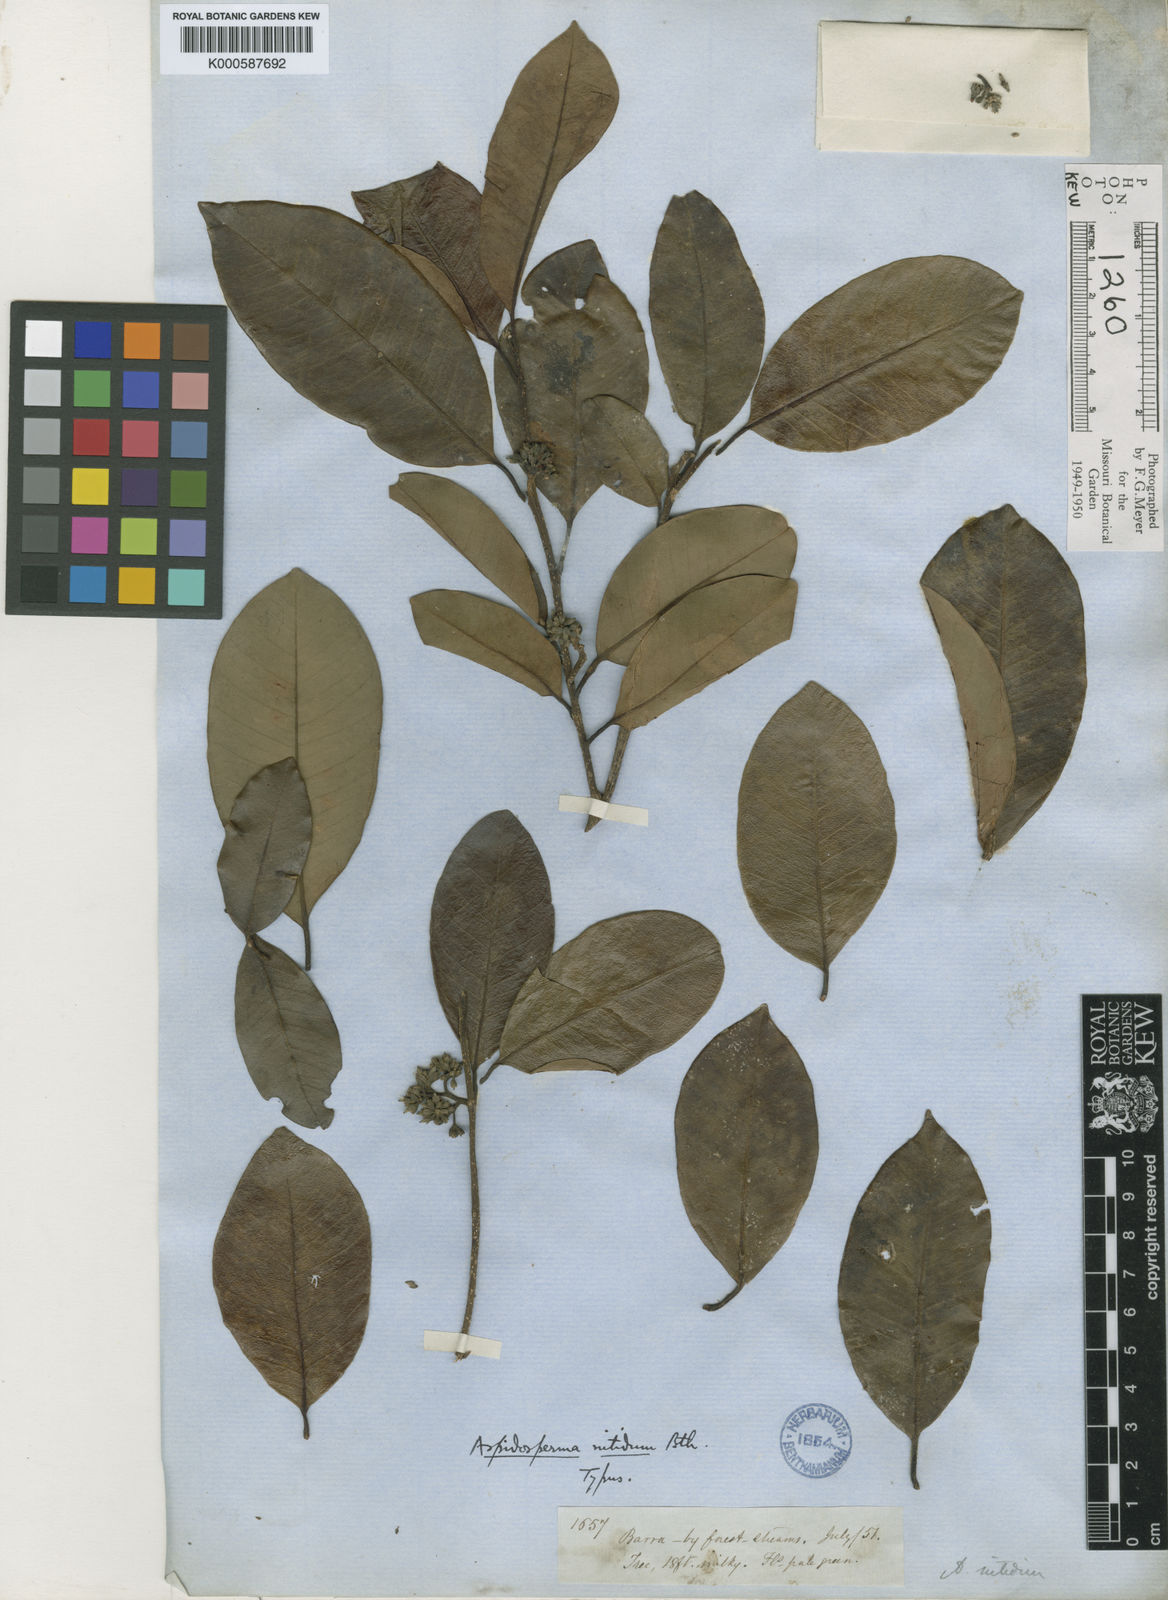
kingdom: Plantae
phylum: Tracheophyta
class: Magnoliopsida
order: Gentianales
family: Apocynaceae
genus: Aspidosperma
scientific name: Aspidosperma
